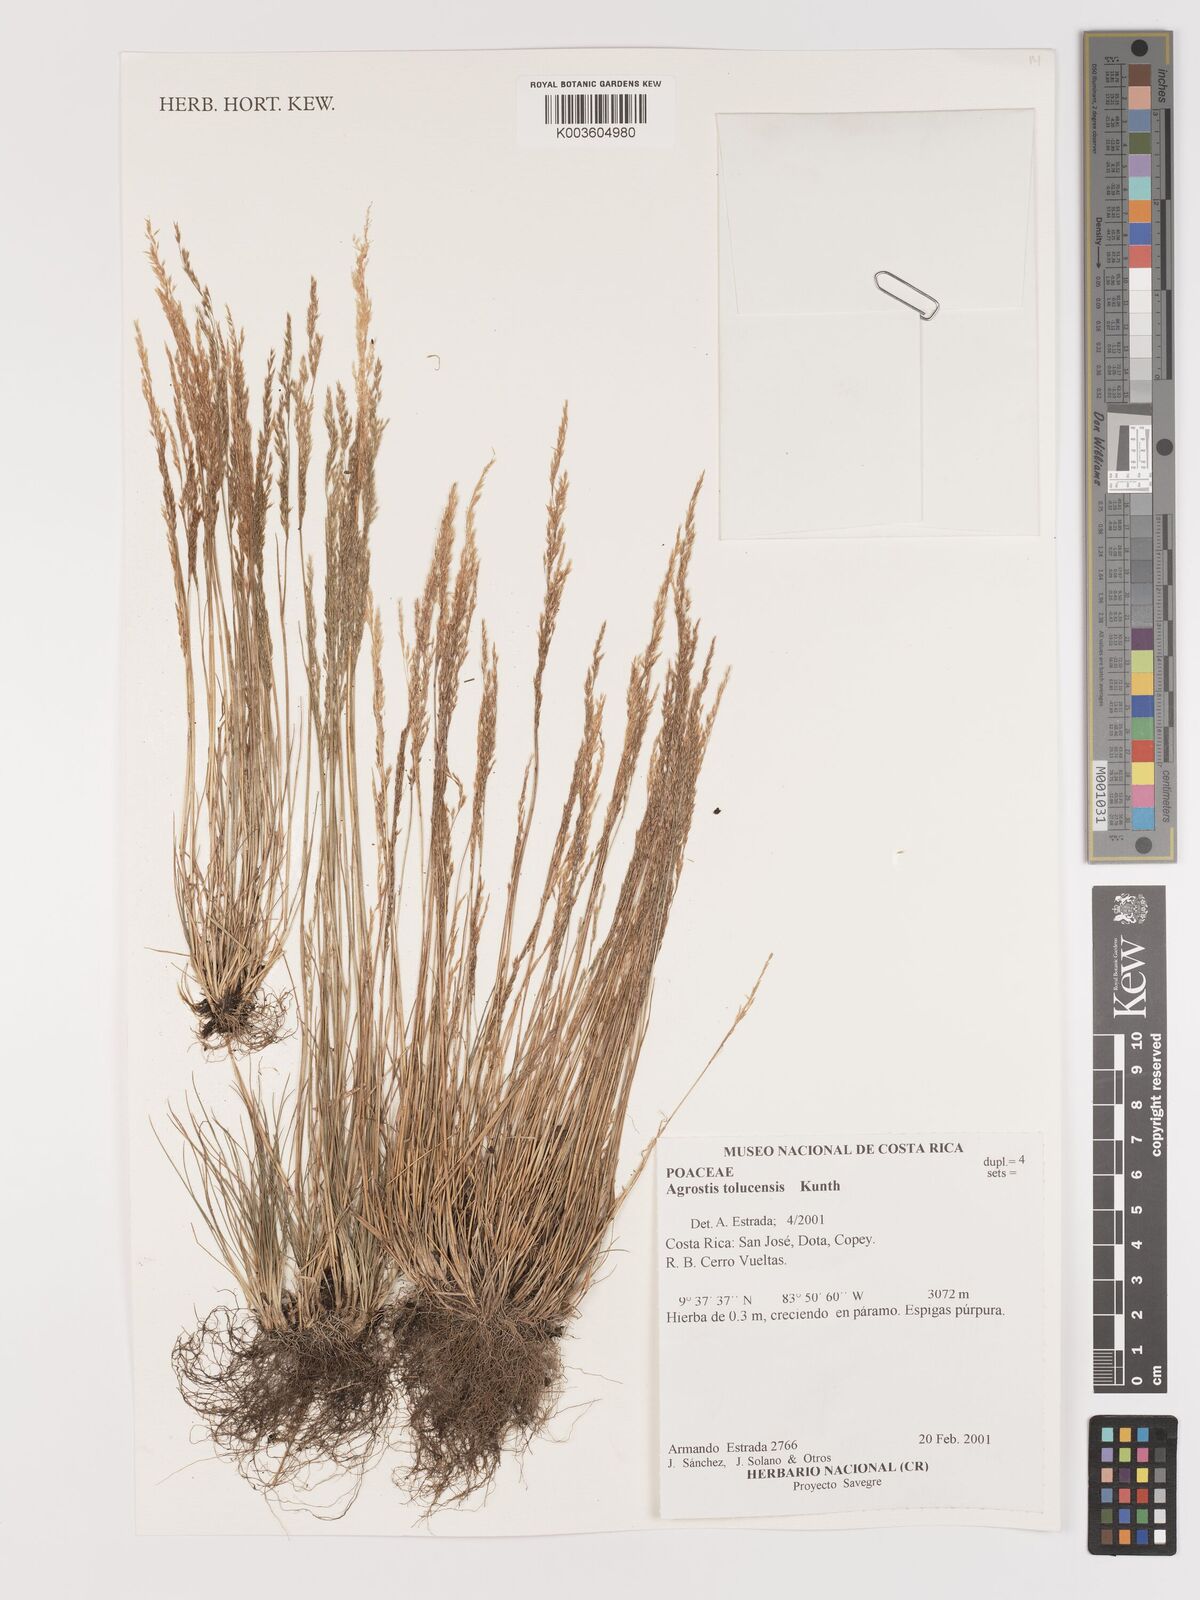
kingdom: Plantae
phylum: Tracheophyta
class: Liliopsida
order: Poales
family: Poaceae
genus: Agrostis
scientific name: Agrostis tolucensis
